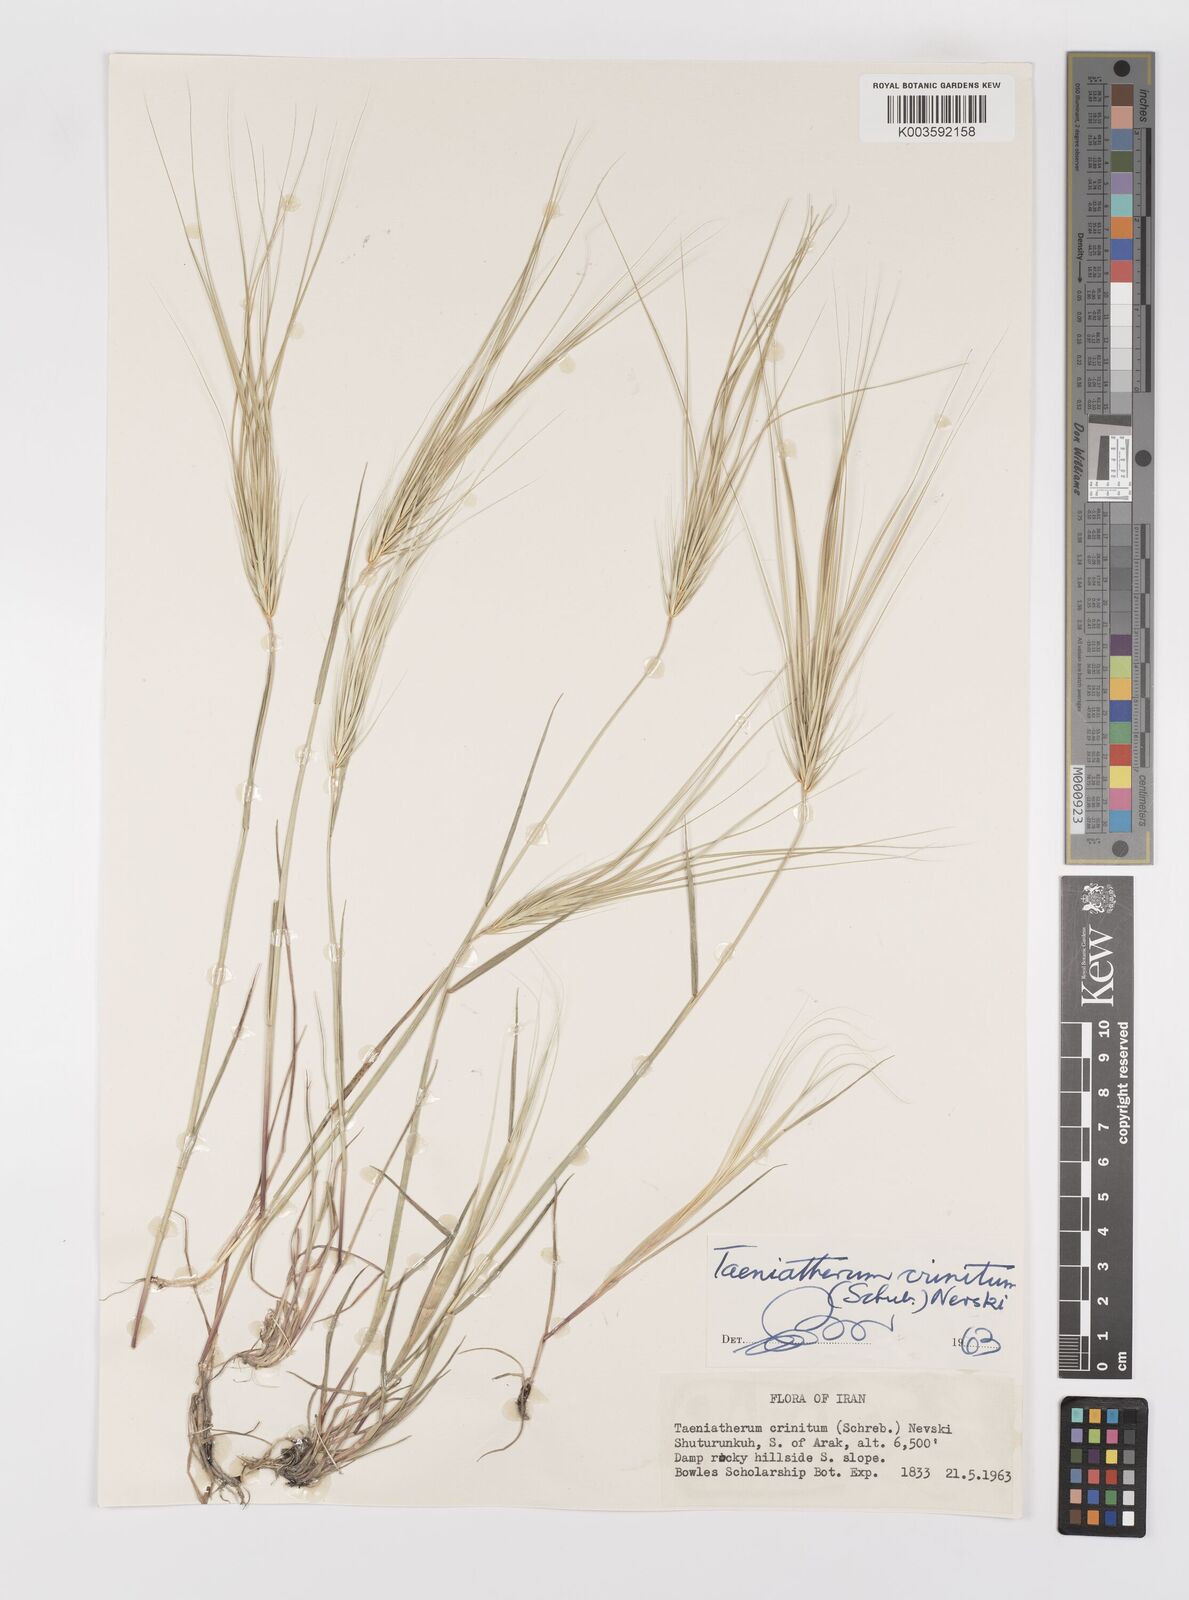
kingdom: Plantae
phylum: Tracheophyta
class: Liliopsida
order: Poales
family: Poaceae
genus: Taeniatherum
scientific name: Taeniatherum caput-medusae
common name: Medusahead
